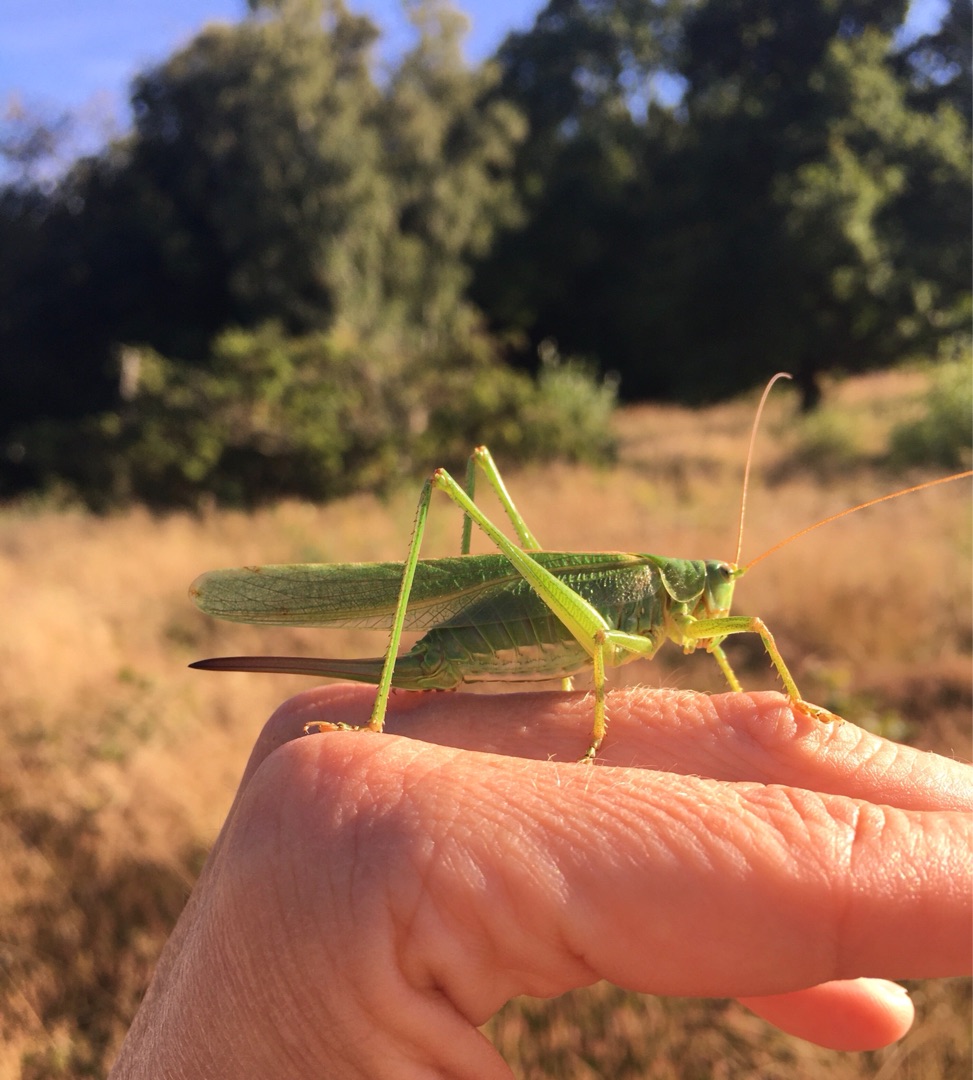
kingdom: Animalia
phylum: Arthropoda
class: Insecta
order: Orthoptera
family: Tettigoniidae
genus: Tettigonia
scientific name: Tettigonia viridissima
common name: Stor grøn løvgræshoppe
